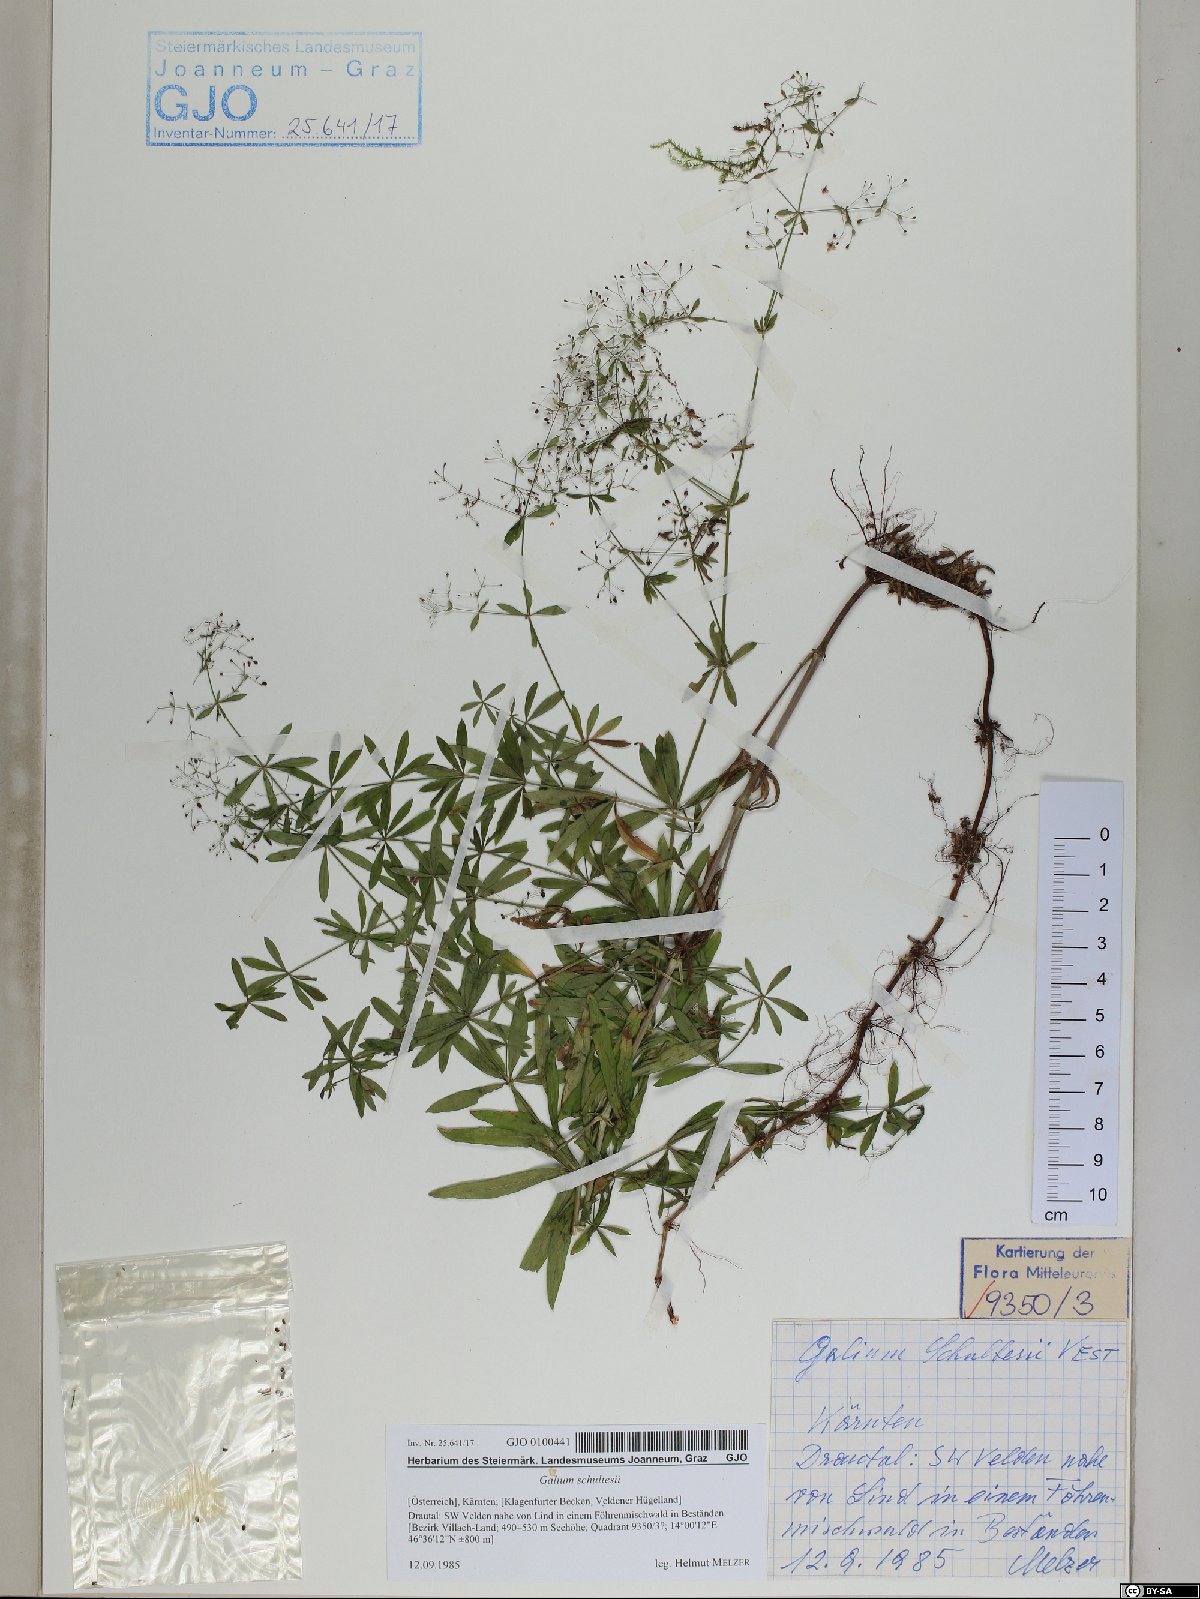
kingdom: Plantae
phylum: Tracheophyta
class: Magnoliopsida
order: Gentianales
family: Rubiaceae
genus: Galium
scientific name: Galium intermedium
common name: Bedstraw
